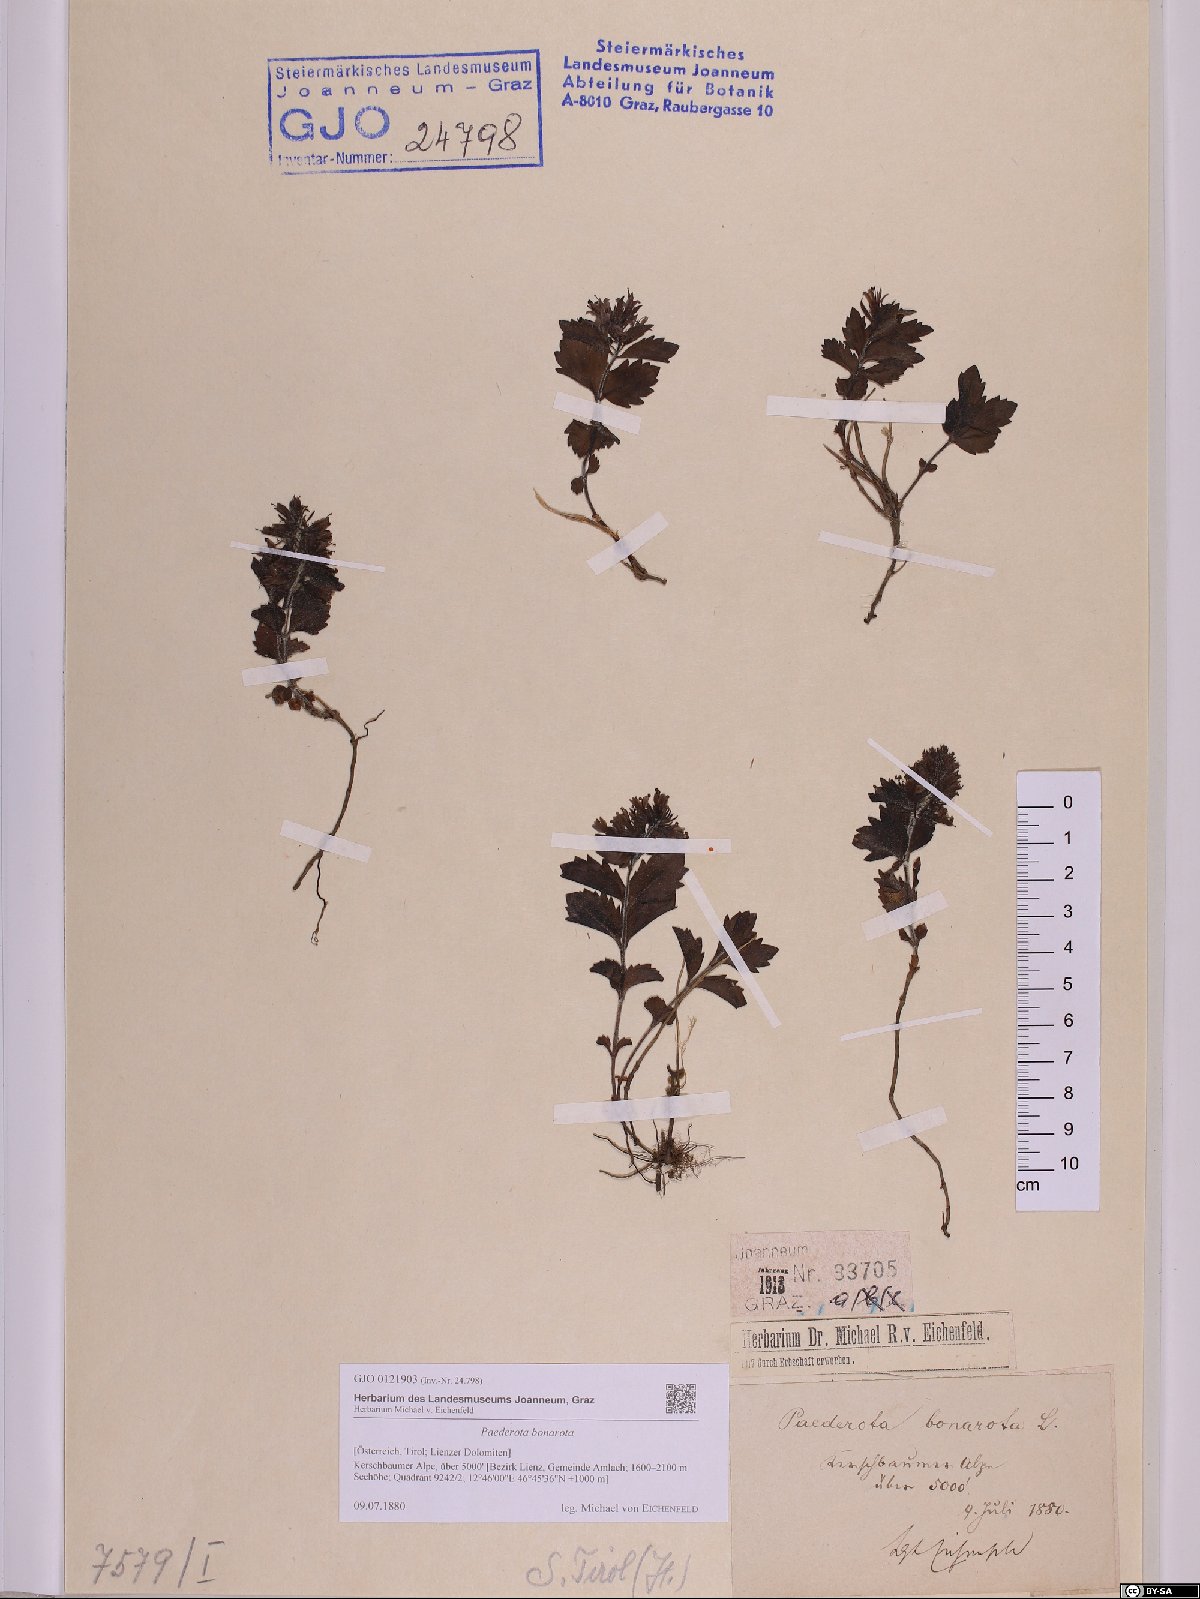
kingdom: Plantae
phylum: Tracheophyta
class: Magnoliopsida
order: Lamiales
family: Plantaginaceae
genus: Paederota
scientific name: Paederota bonarota
